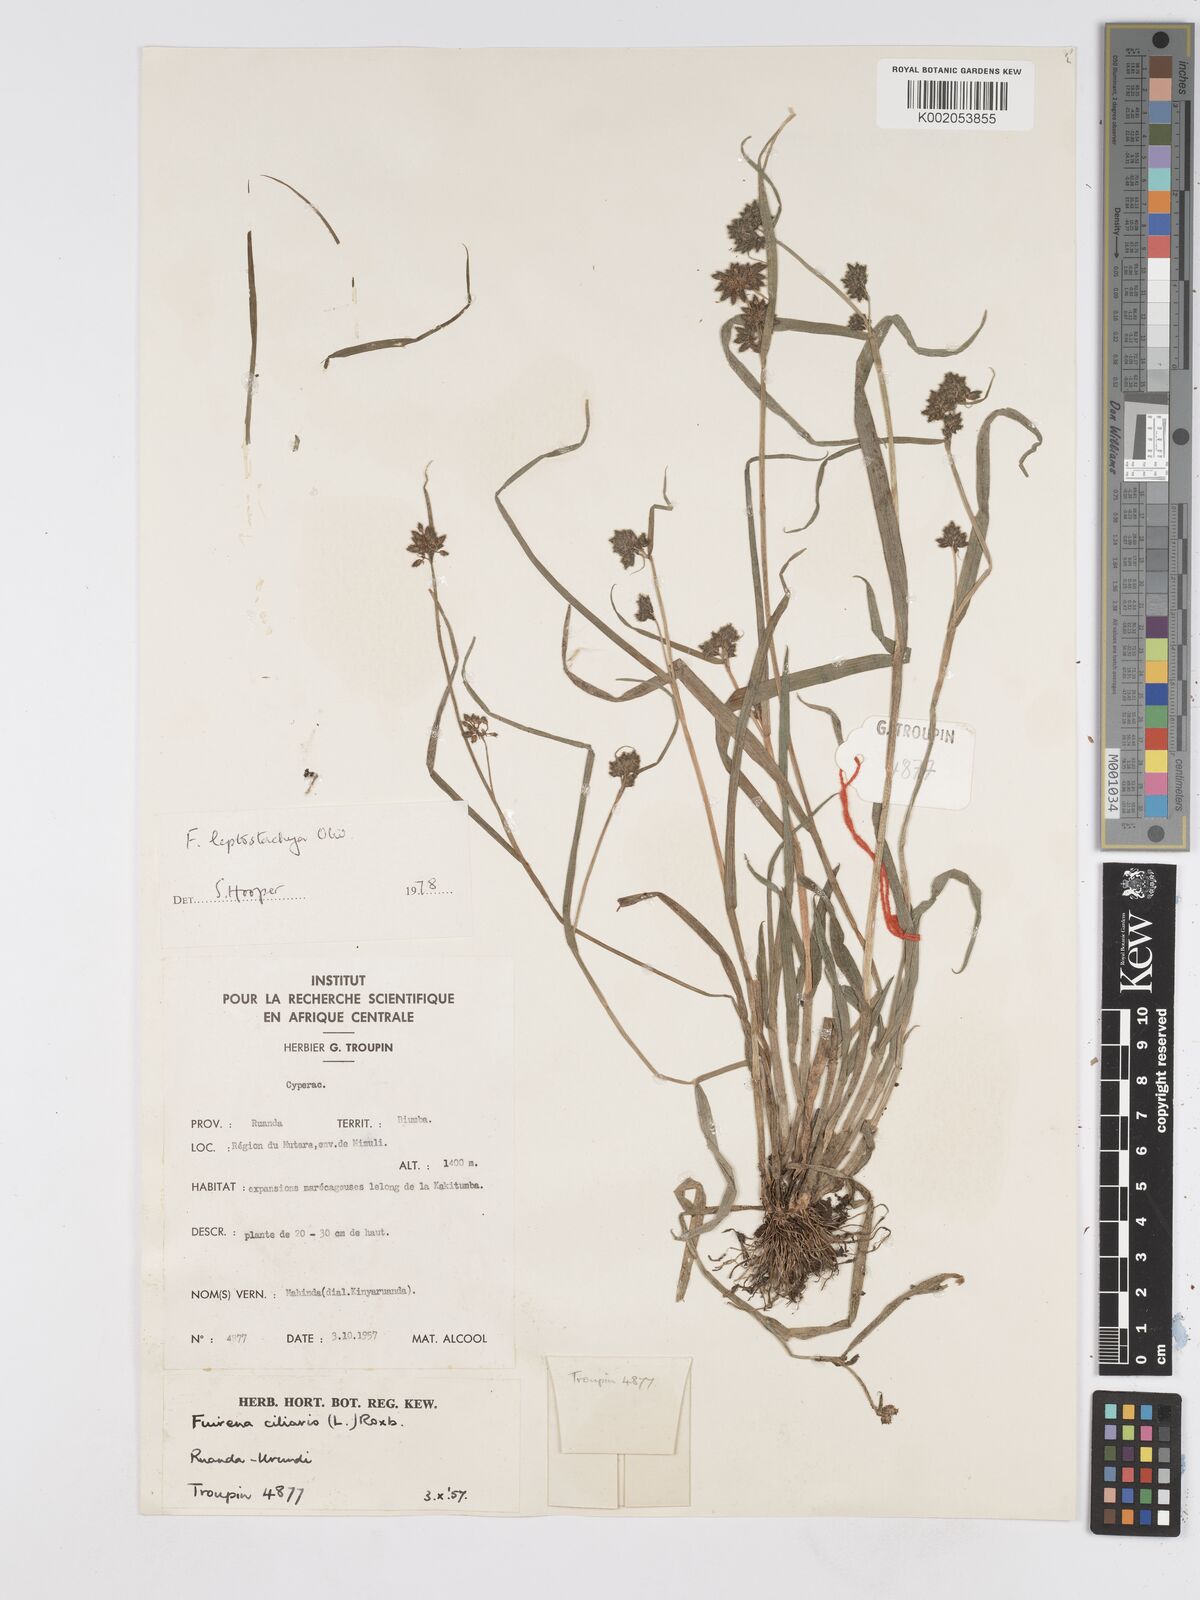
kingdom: Plantae
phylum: Tracheophyta
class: Liliopsida
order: Poales
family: Cyperaceae
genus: Fuirena
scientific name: Fuirena leptostachya
